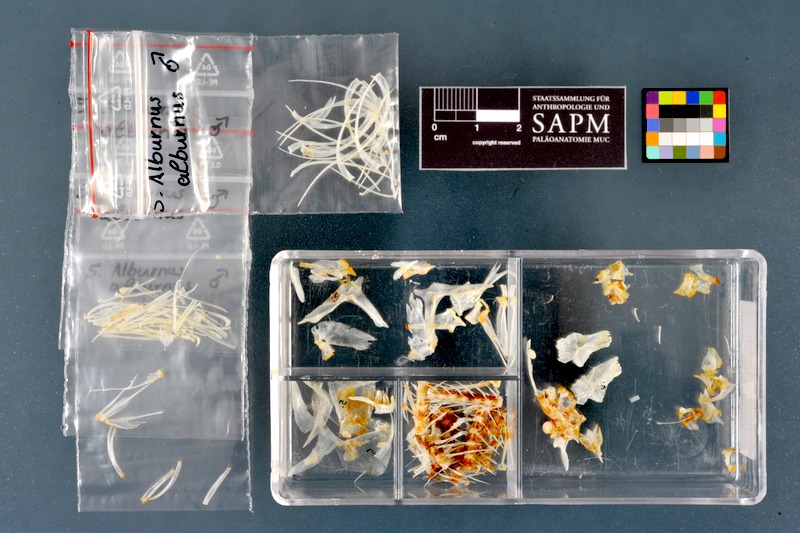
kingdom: Animalia
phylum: Chordata
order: Cypriniformes
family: Cyprinidae
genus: Alburnus
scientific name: Alburnus alburnus
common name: Bleak
